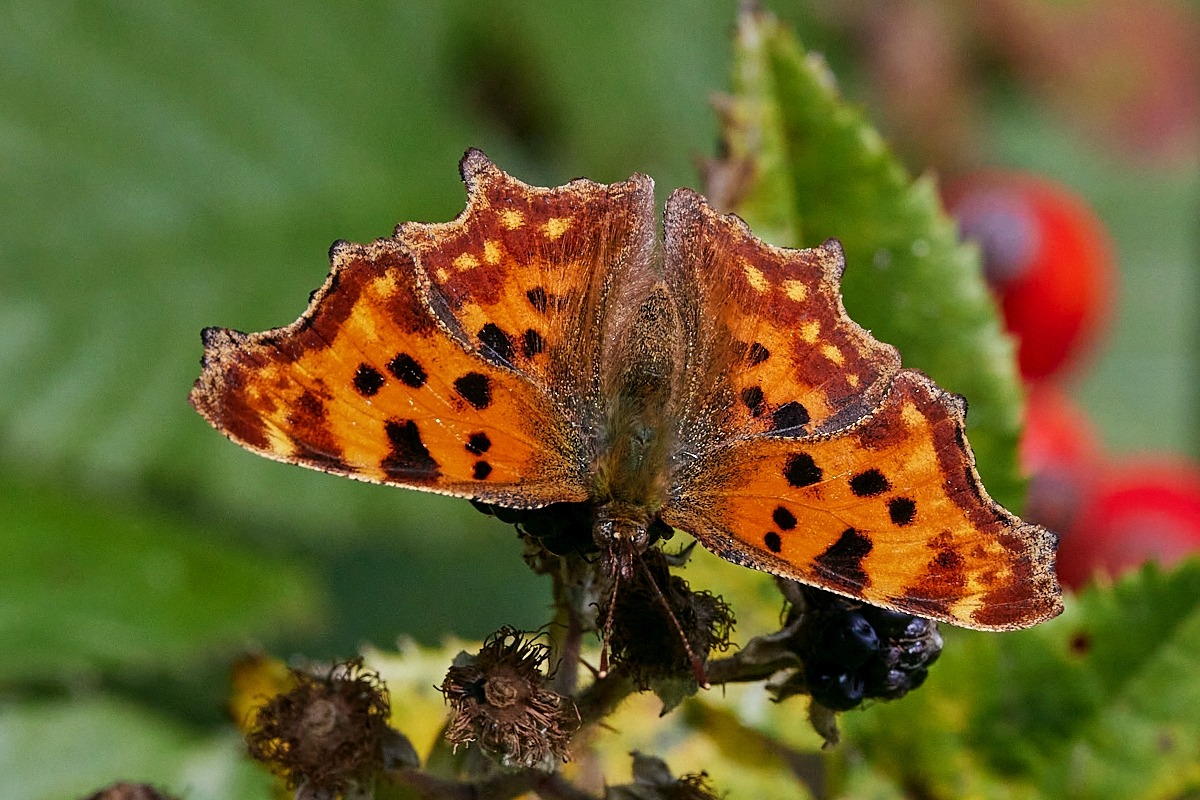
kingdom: Animalia
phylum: Arthropoda
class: Insecta
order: Lepidoptera
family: Nymphalidae
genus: Polygonia
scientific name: Polygonia c-album
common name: Det hvide C
